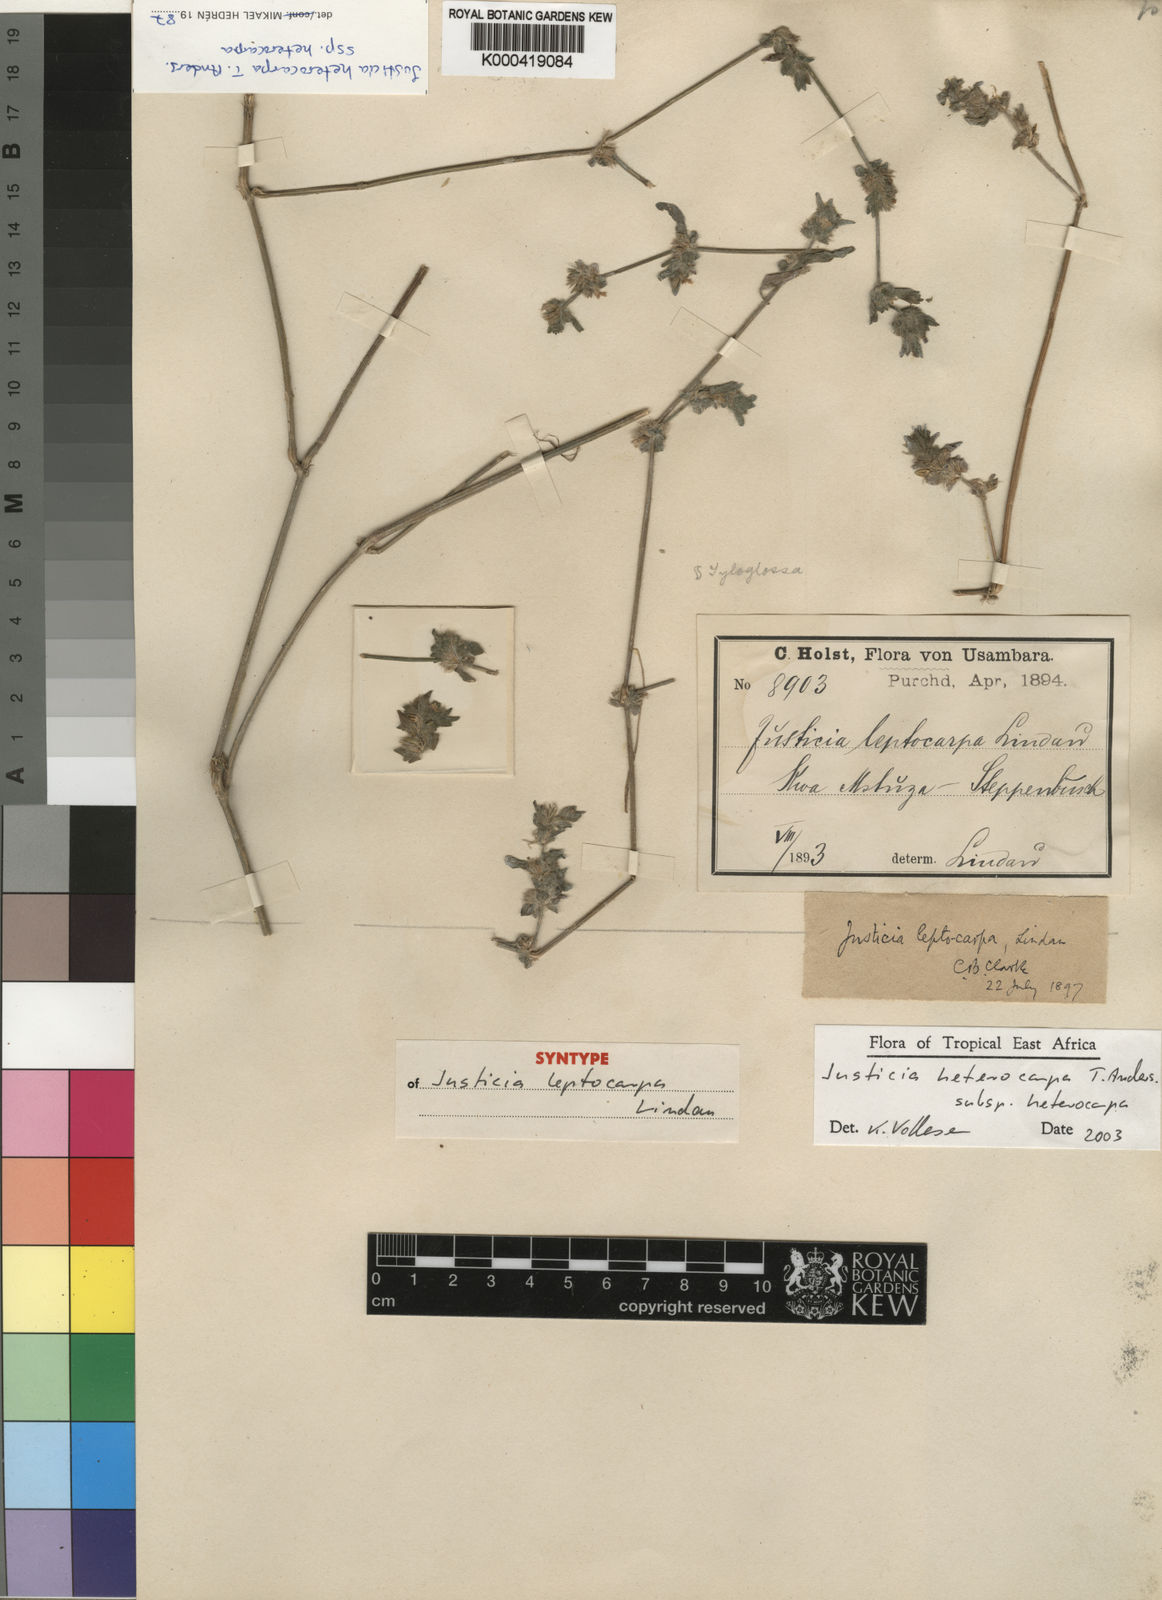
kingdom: Plantae
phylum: Tracheophyta
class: Magnoliopsida
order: Lamiales
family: Acanthaceae
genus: Justicia
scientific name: Justicia heterocarpa
